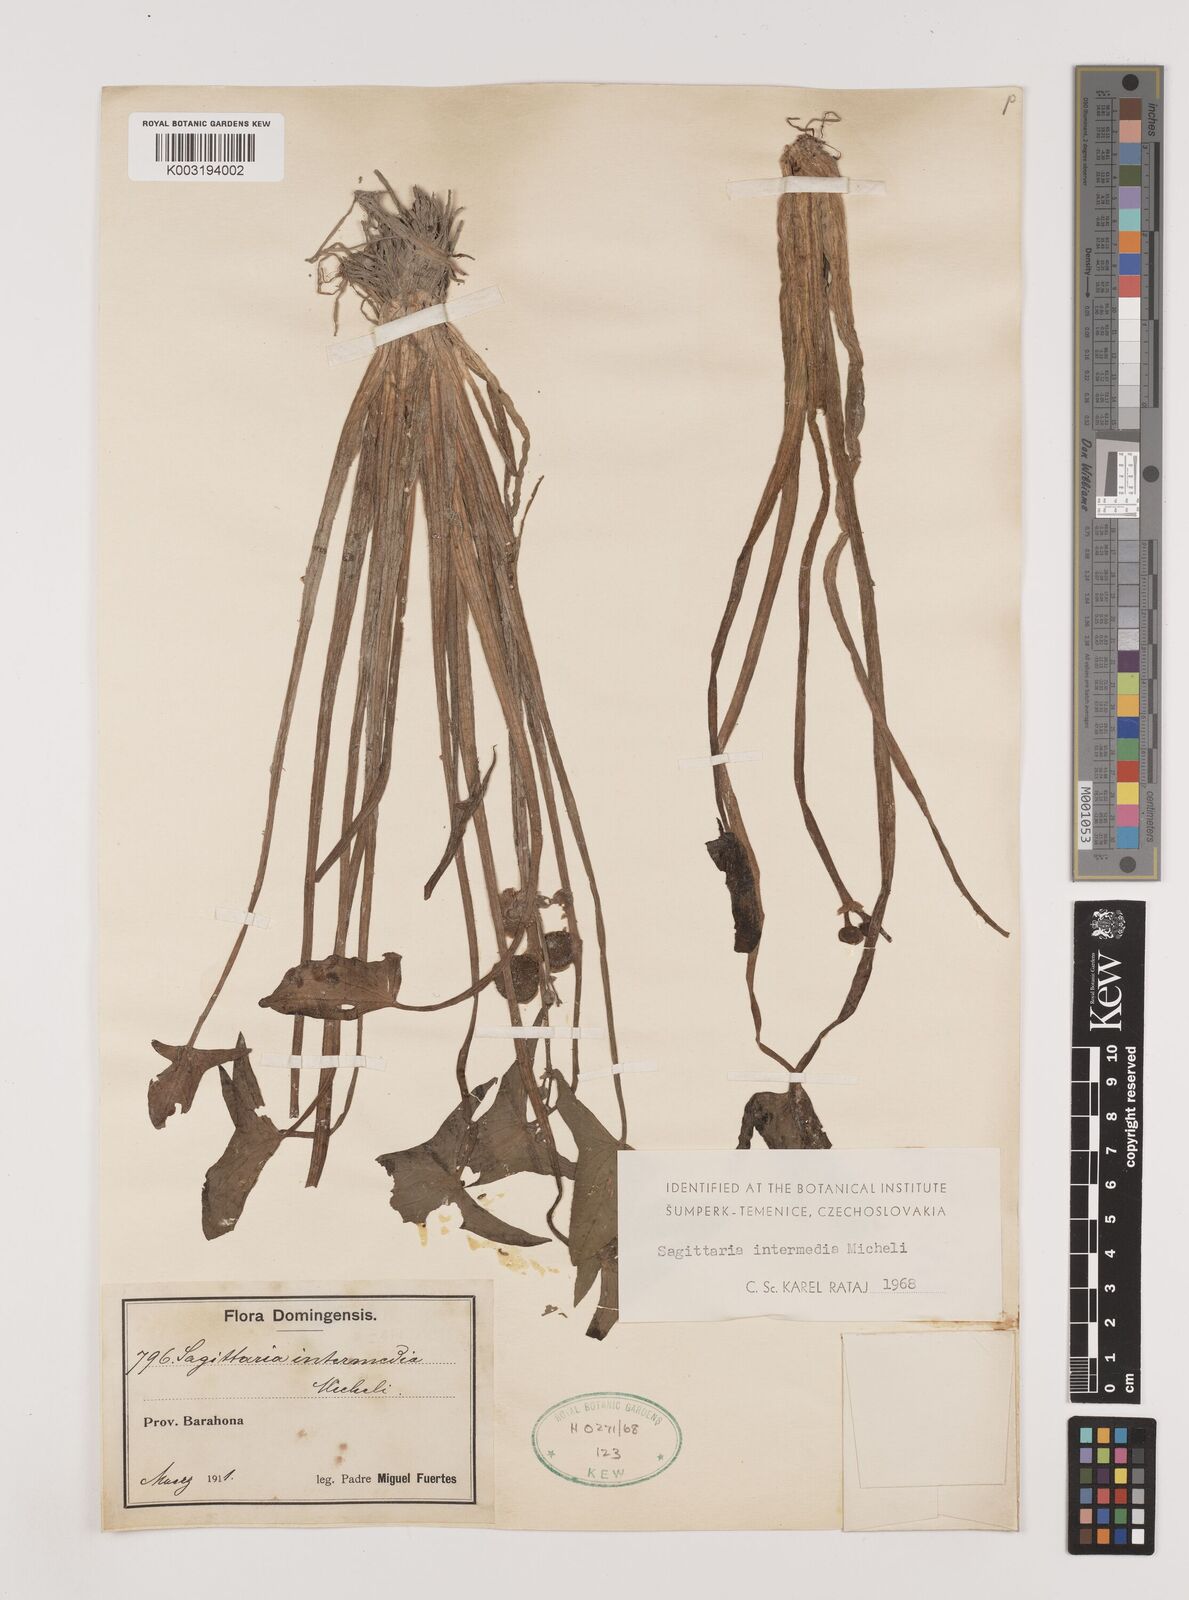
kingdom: Plantae
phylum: Tracheophyta
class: Liliopsida
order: Alismatales
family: Alismataceae
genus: Sagittaria
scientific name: Sagittaria intermedia
